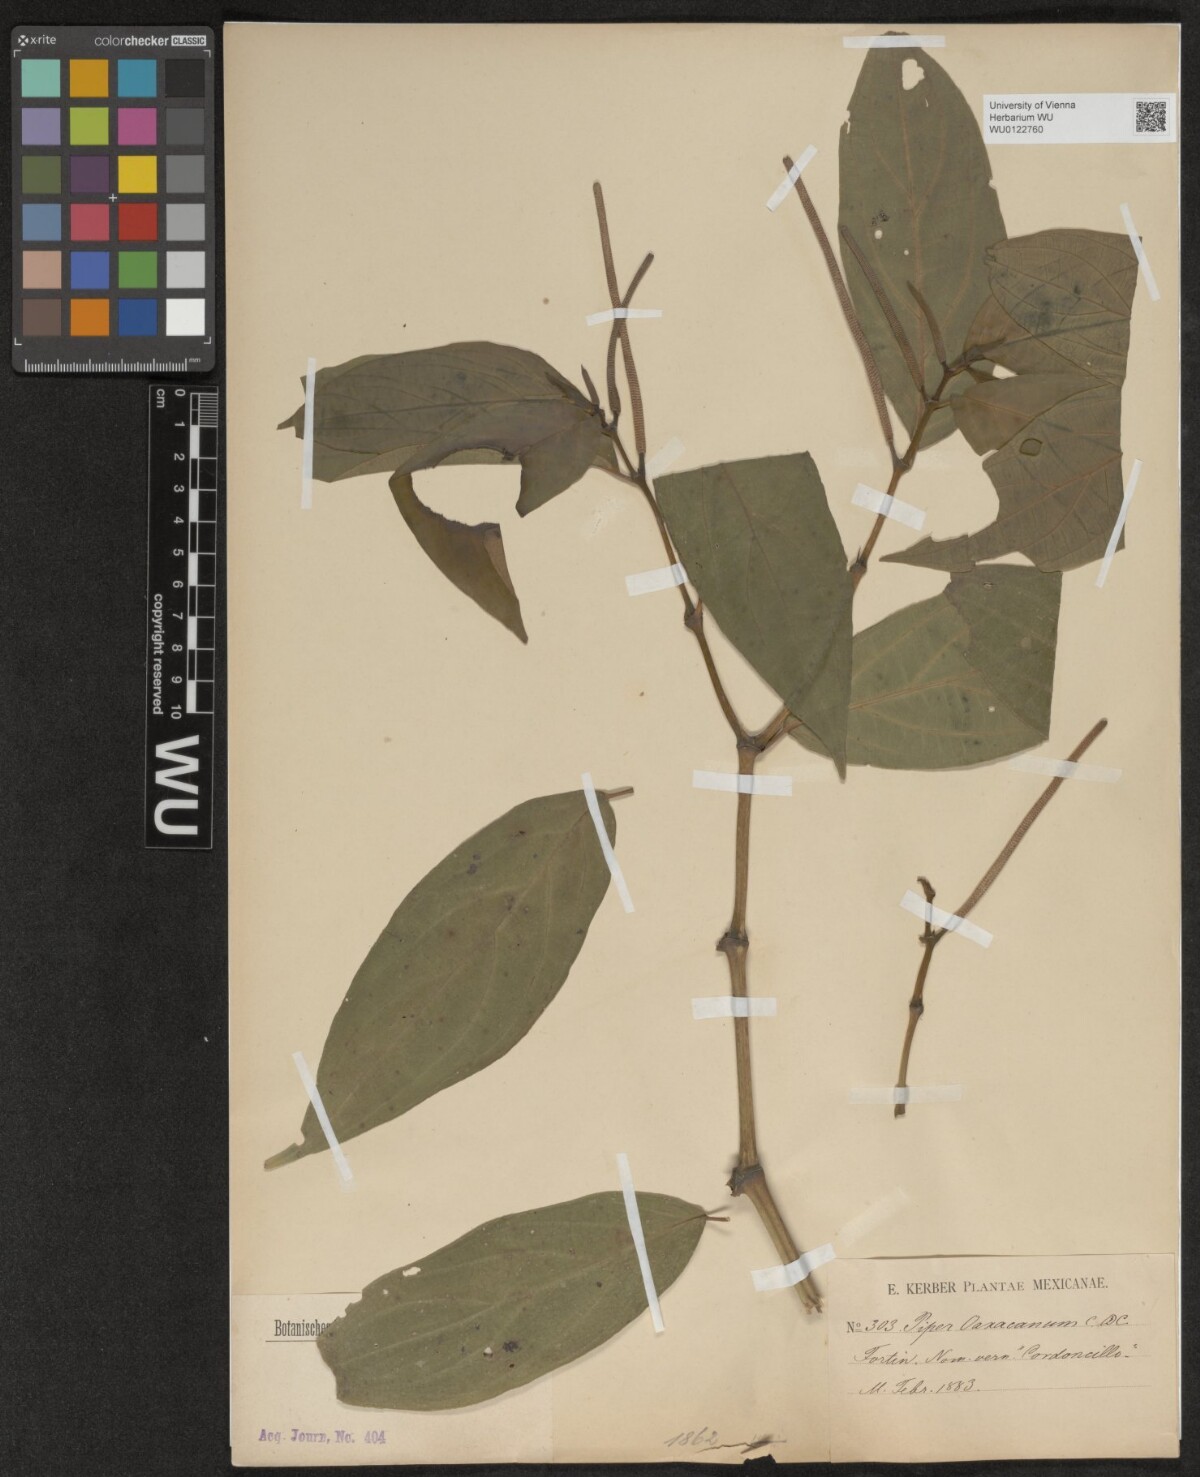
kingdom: Plantae
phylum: Tracheophyta
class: Magnoliopsida
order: Piperales
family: Piperaceae
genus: Piper
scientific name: Piper oaxacanum
